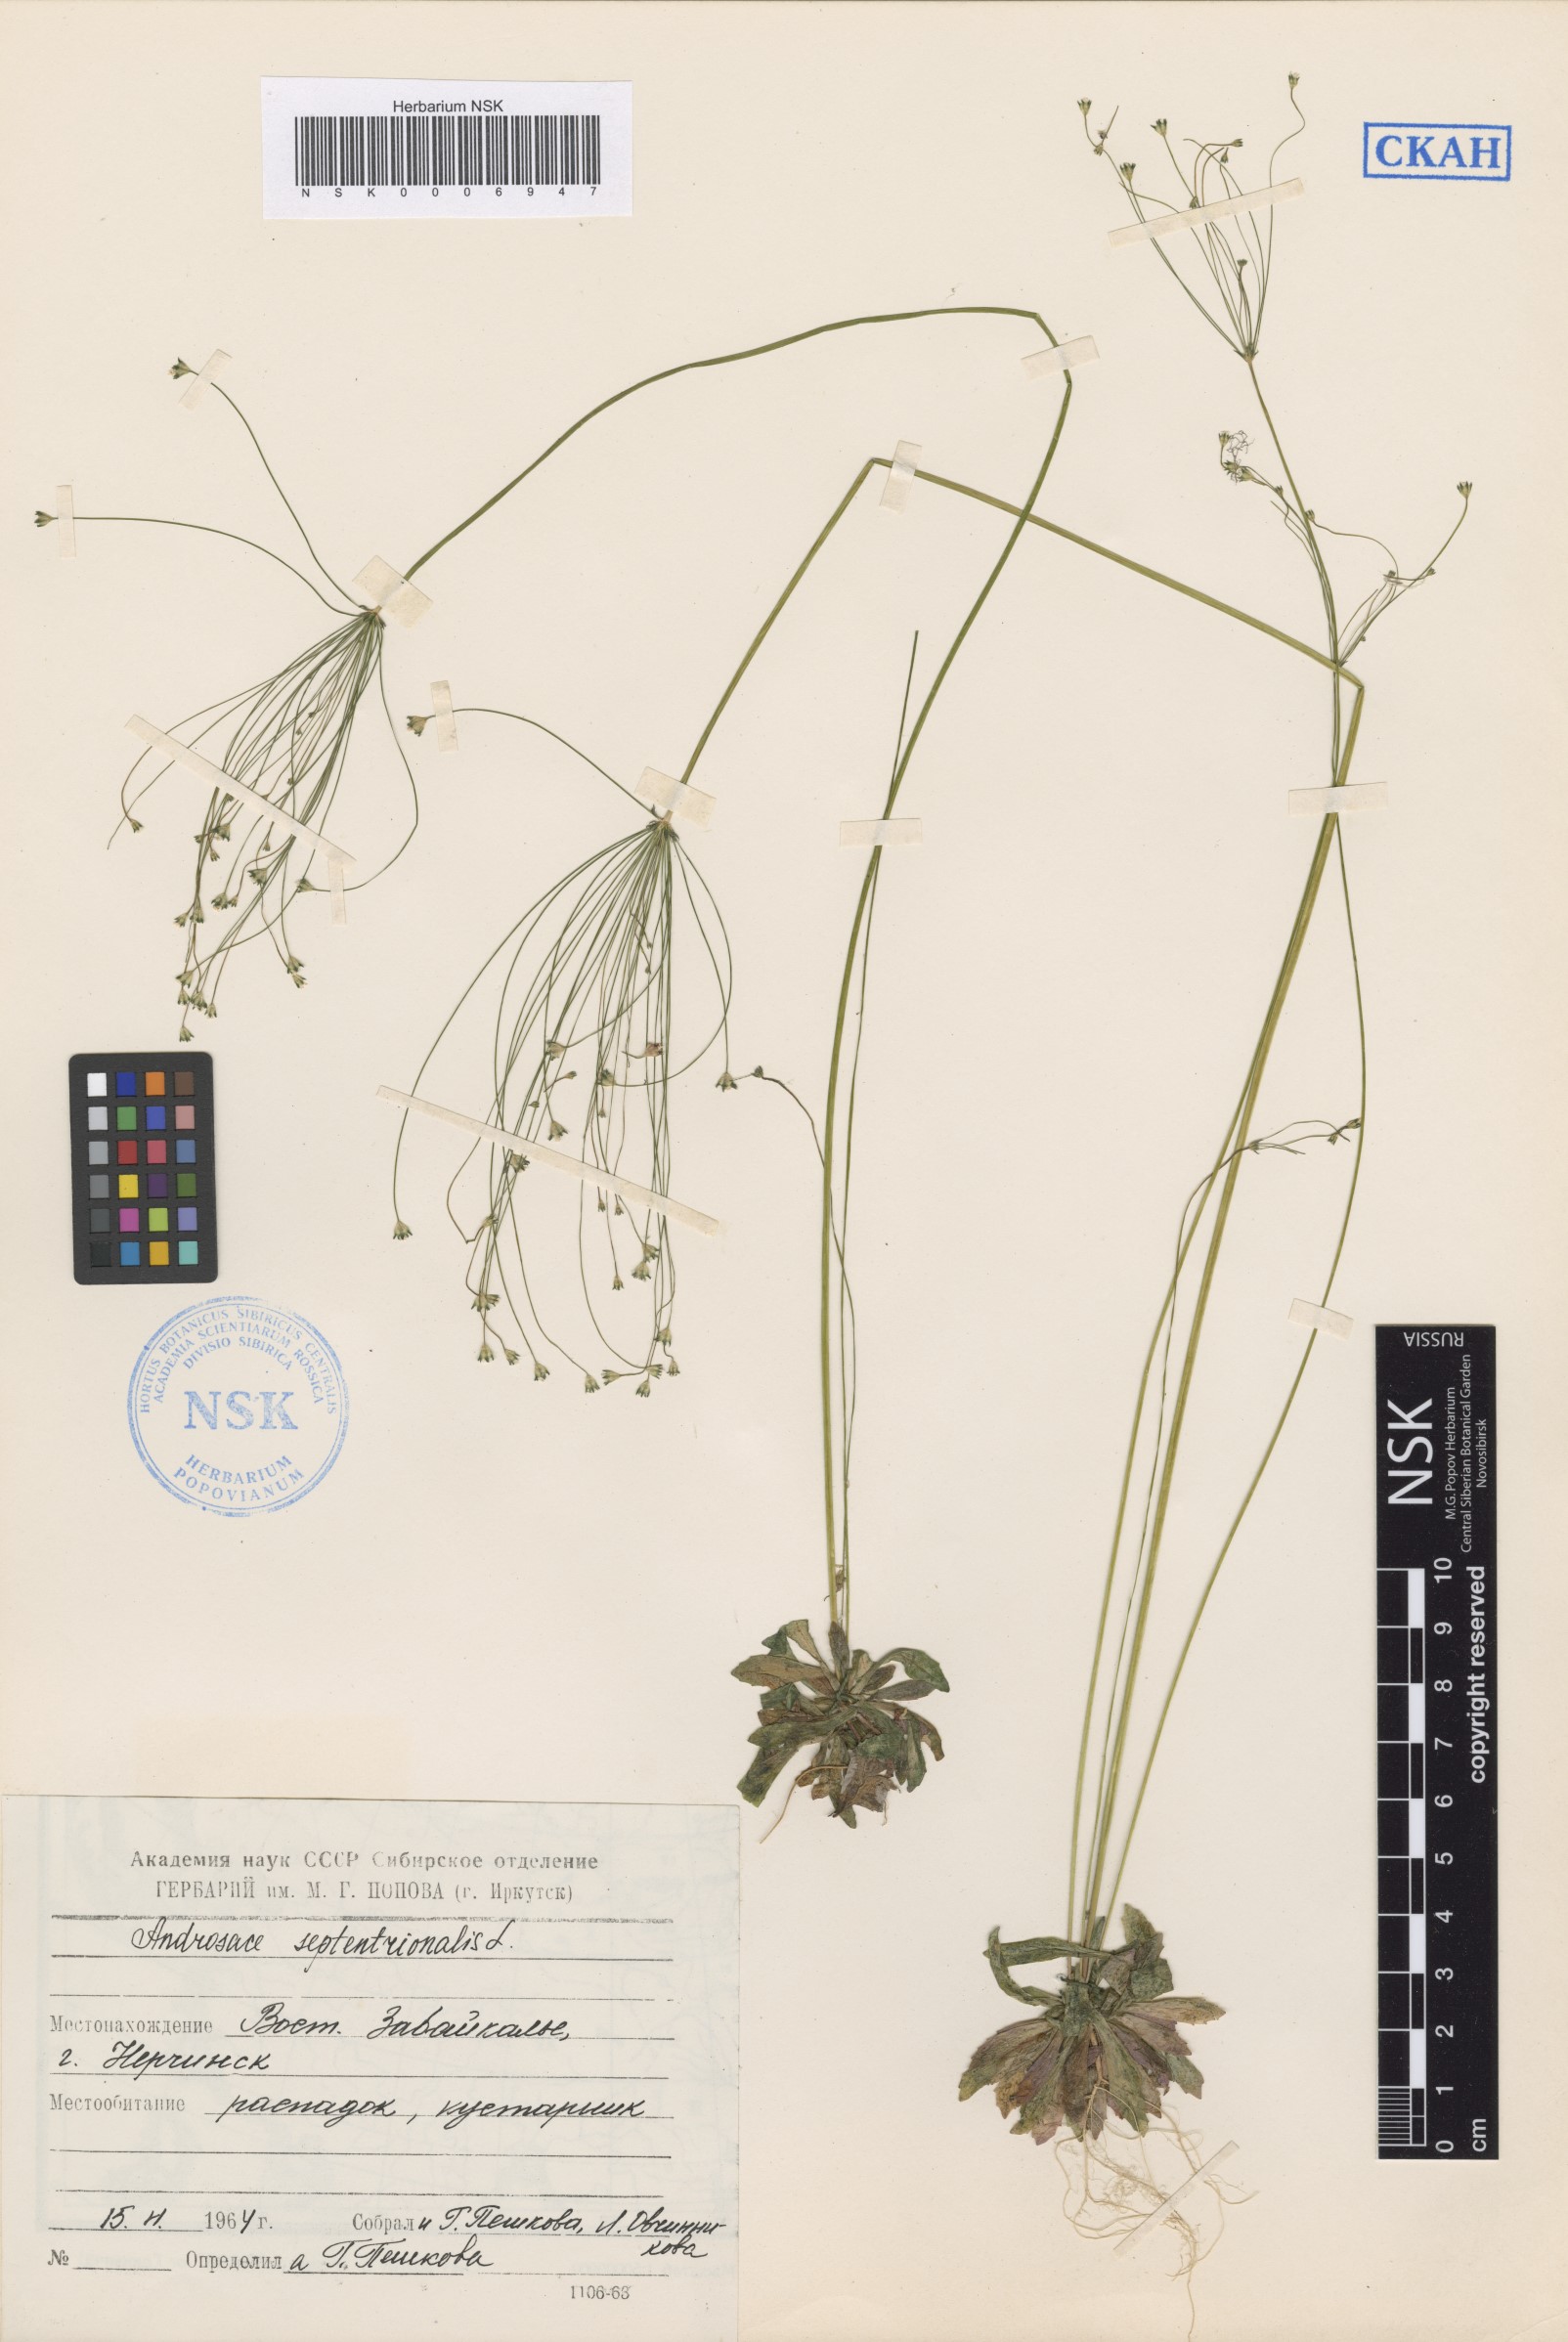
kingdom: Plantae
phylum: Tracheophyta
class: Magnoliopsida
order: Ericales
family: Primulaceae
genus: Androsace
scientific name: Androsace septentrionalis
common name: Hairy northern fairy-candelabra
